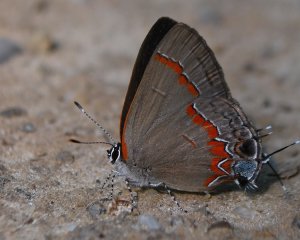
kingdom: Animalia
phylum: Arthropoda
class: Insecta
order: Lepidoptera
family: Lycaenidae
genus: Calycopis
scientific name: Calycopis cecrops
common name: Red-banded Hairstreak
